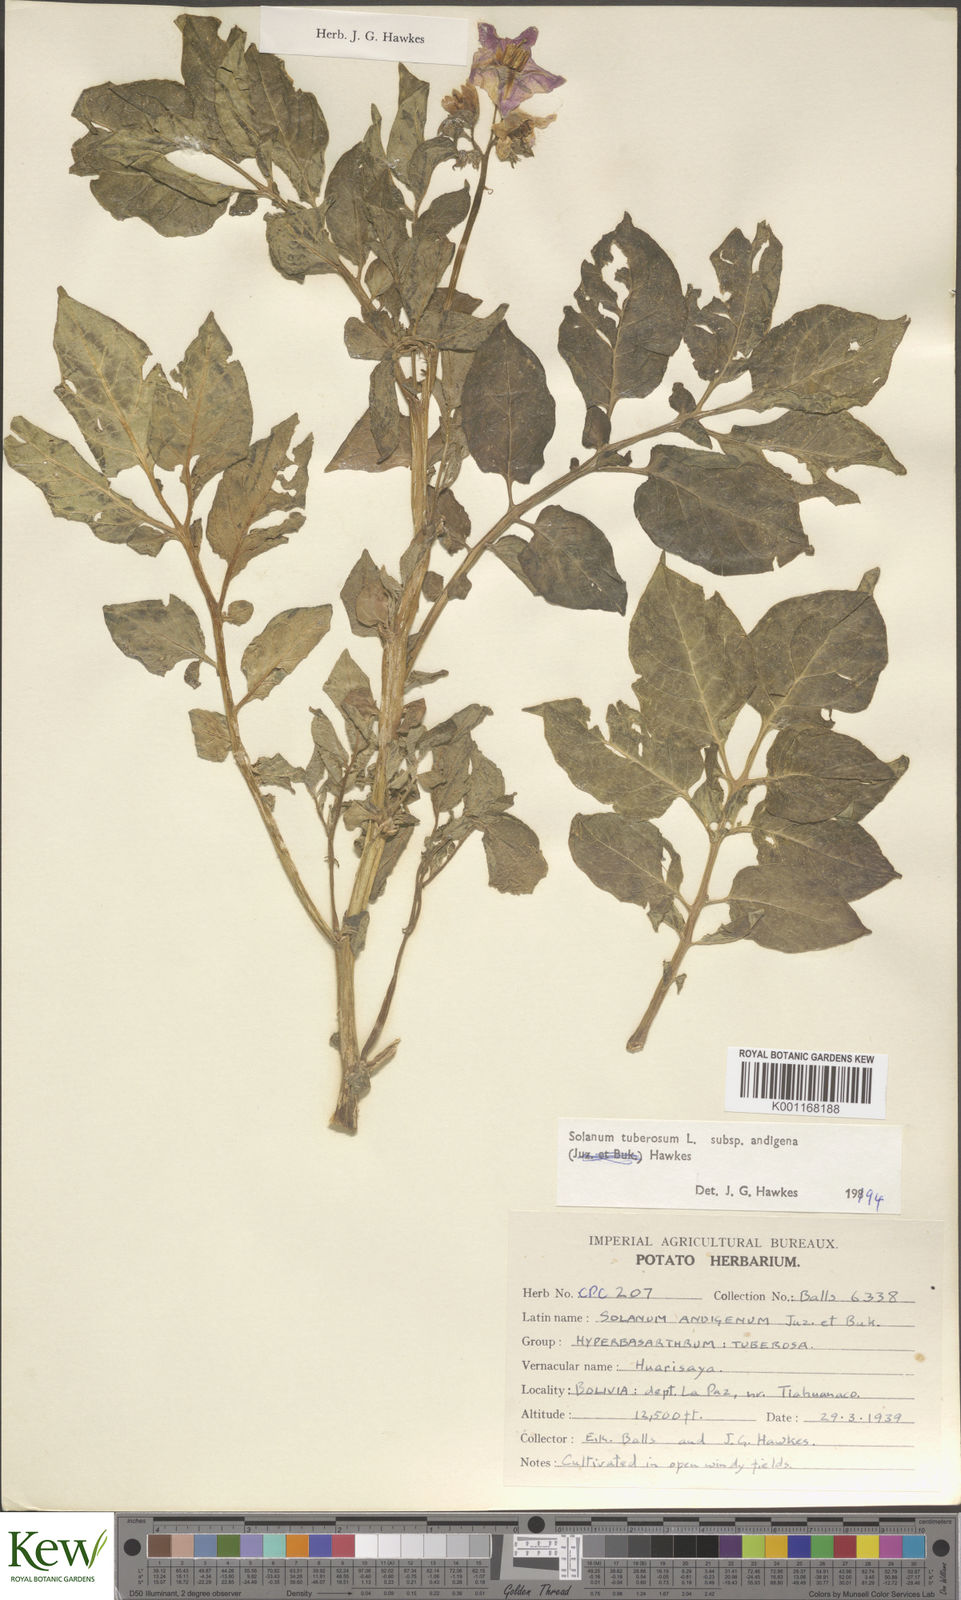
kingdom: Plantae
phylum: Tracheophyta
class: Magnoliopsida
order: Solanales
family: Solanaceae
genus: Solanum
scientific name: Solanum tuberosum
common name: Potato
